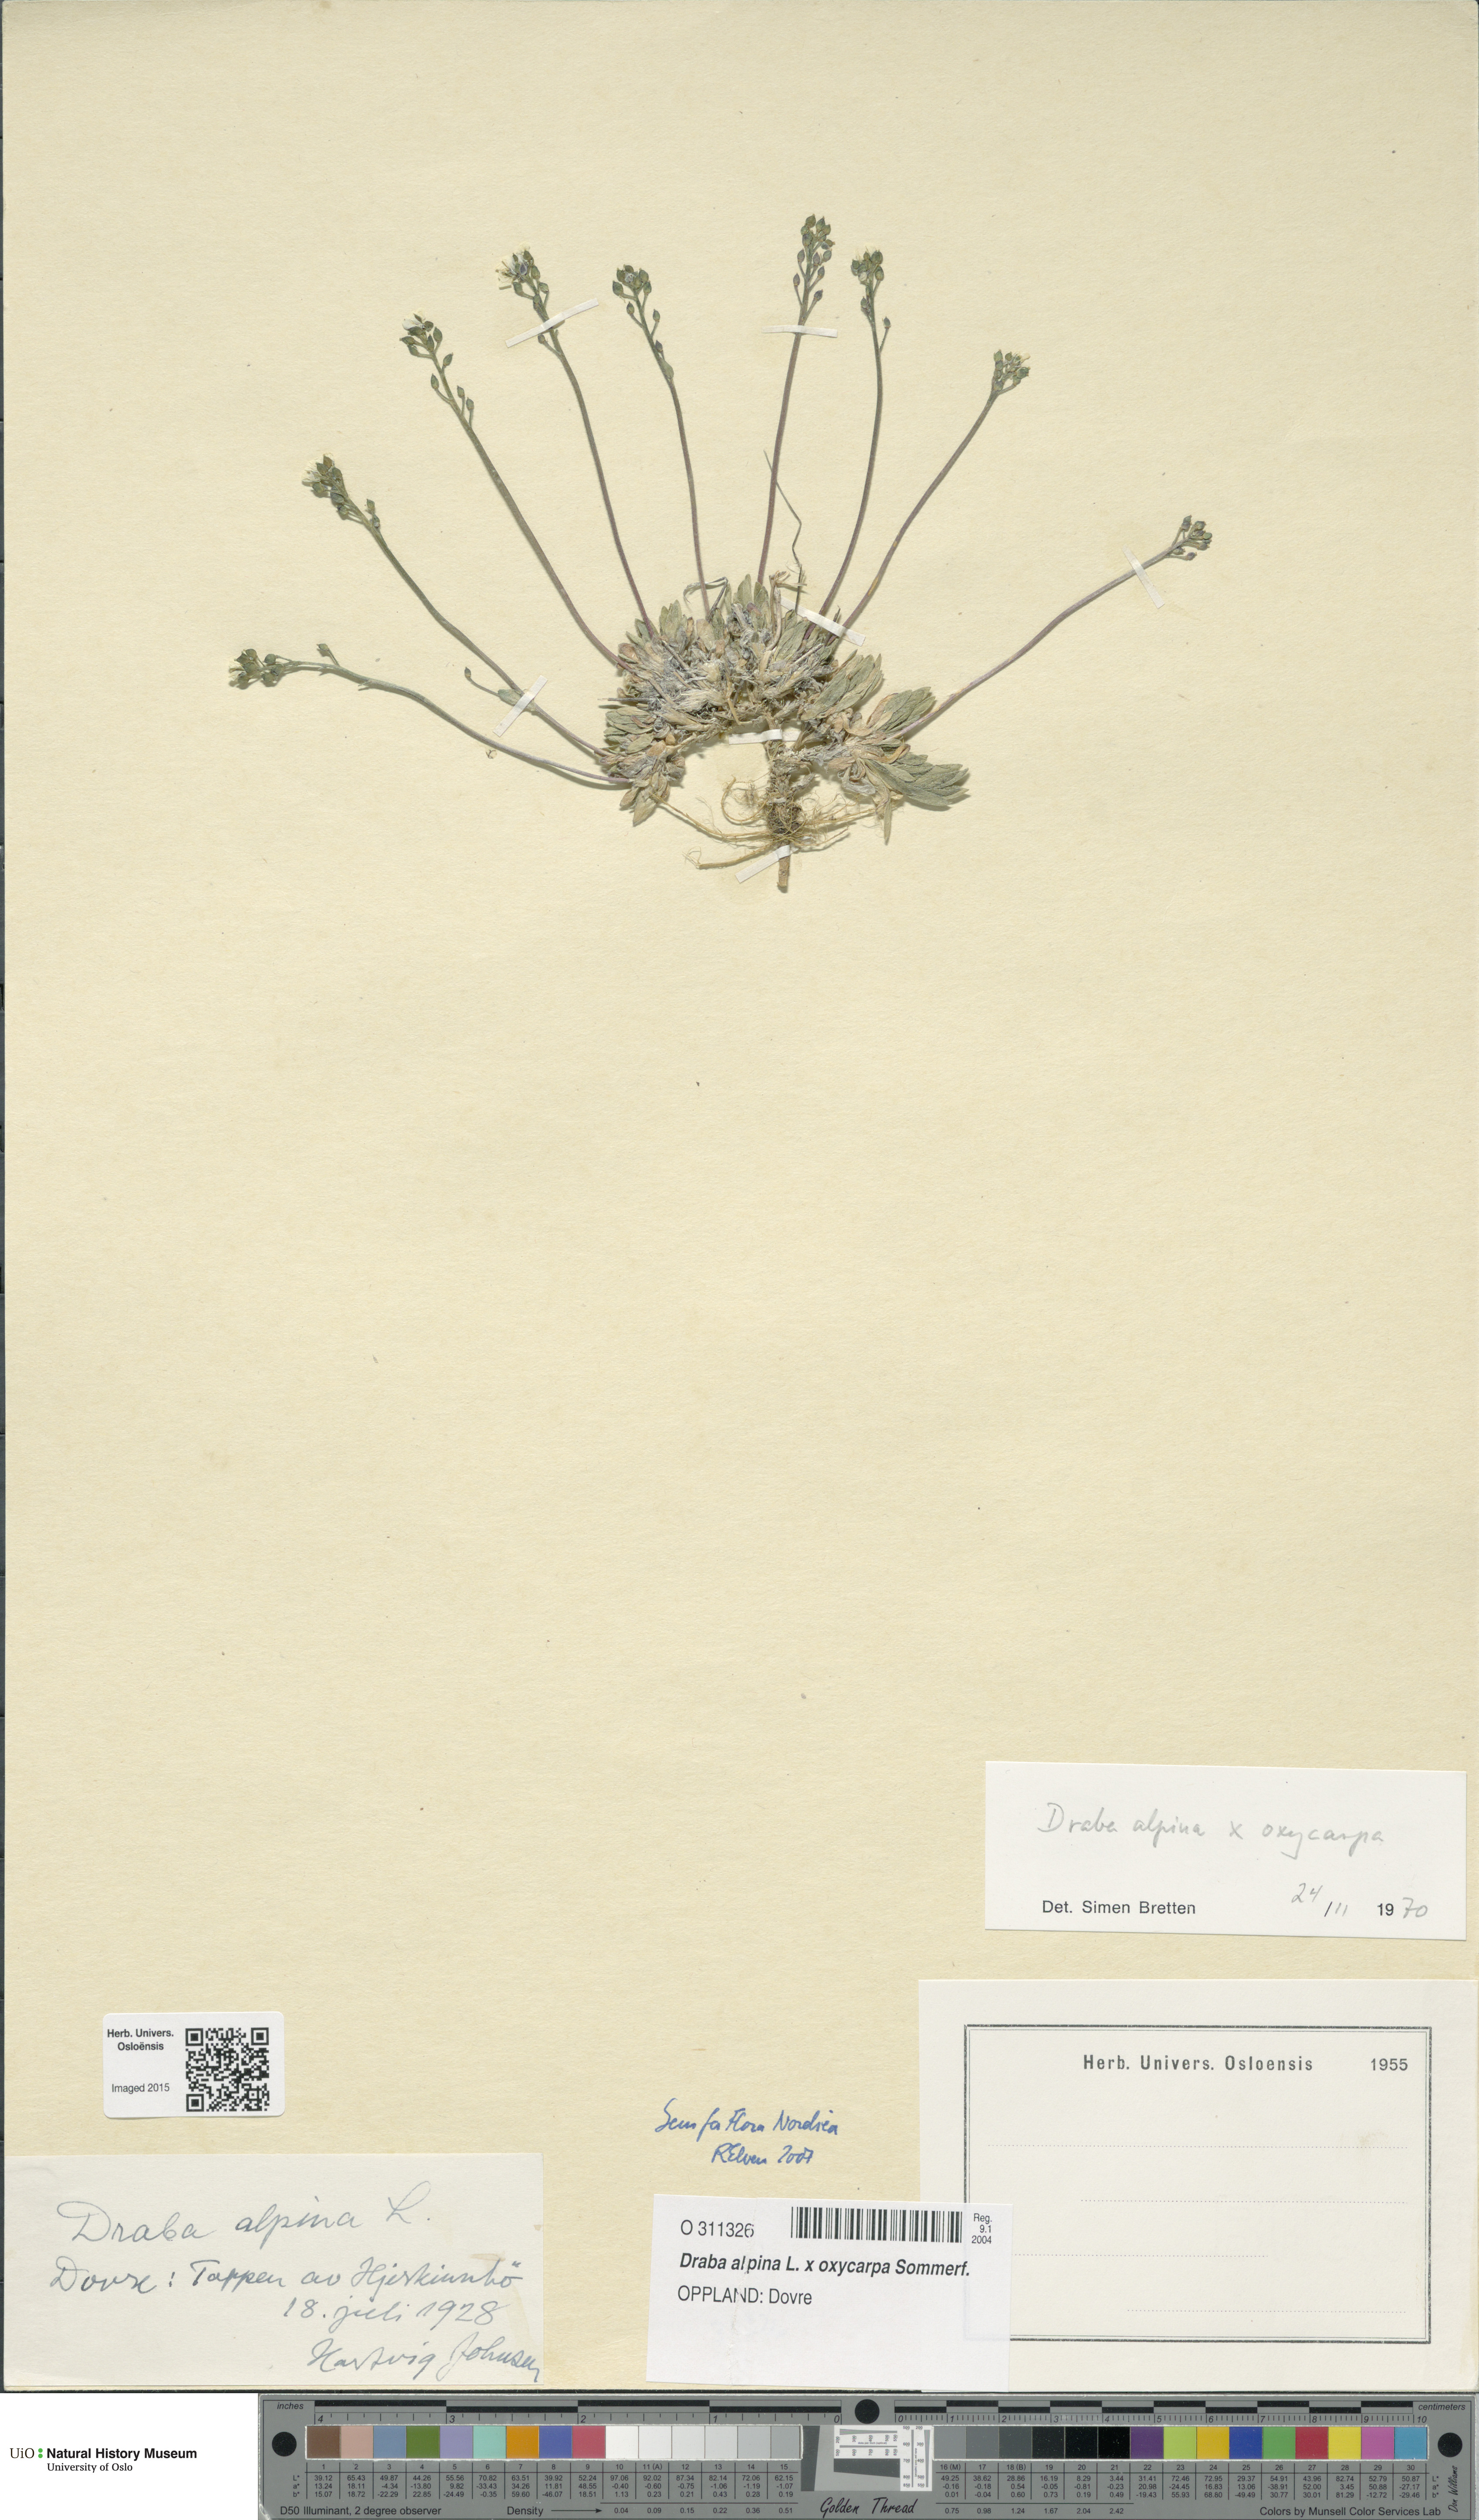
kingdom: Plantae
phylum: Tracheophyta
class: Magnoliopsida
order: Brassicales
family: Brassicaceae
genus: Draba
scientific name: Draba
